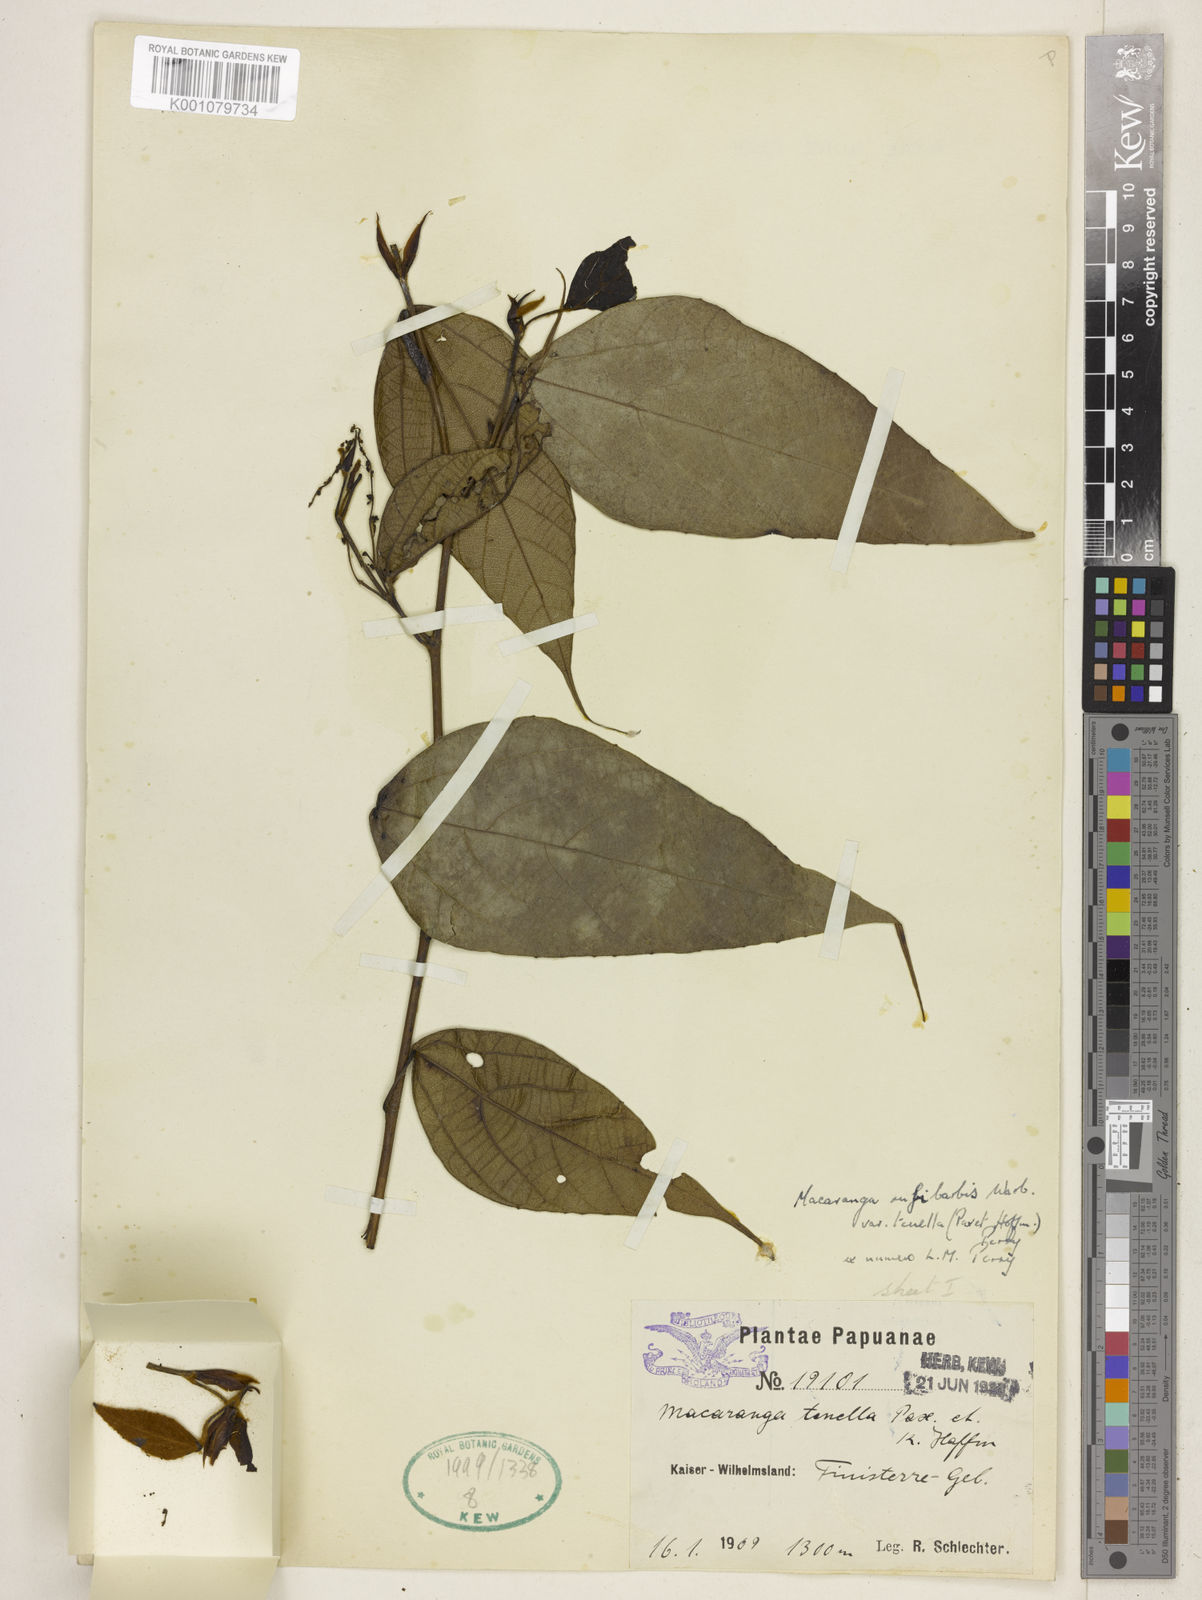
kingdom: Plantae
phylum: Tracheophyta
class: Magnoliopsida
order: Malpighiales
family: Euphorbiaceae
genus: Macaranga
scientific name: Macaranga rufibarbis
